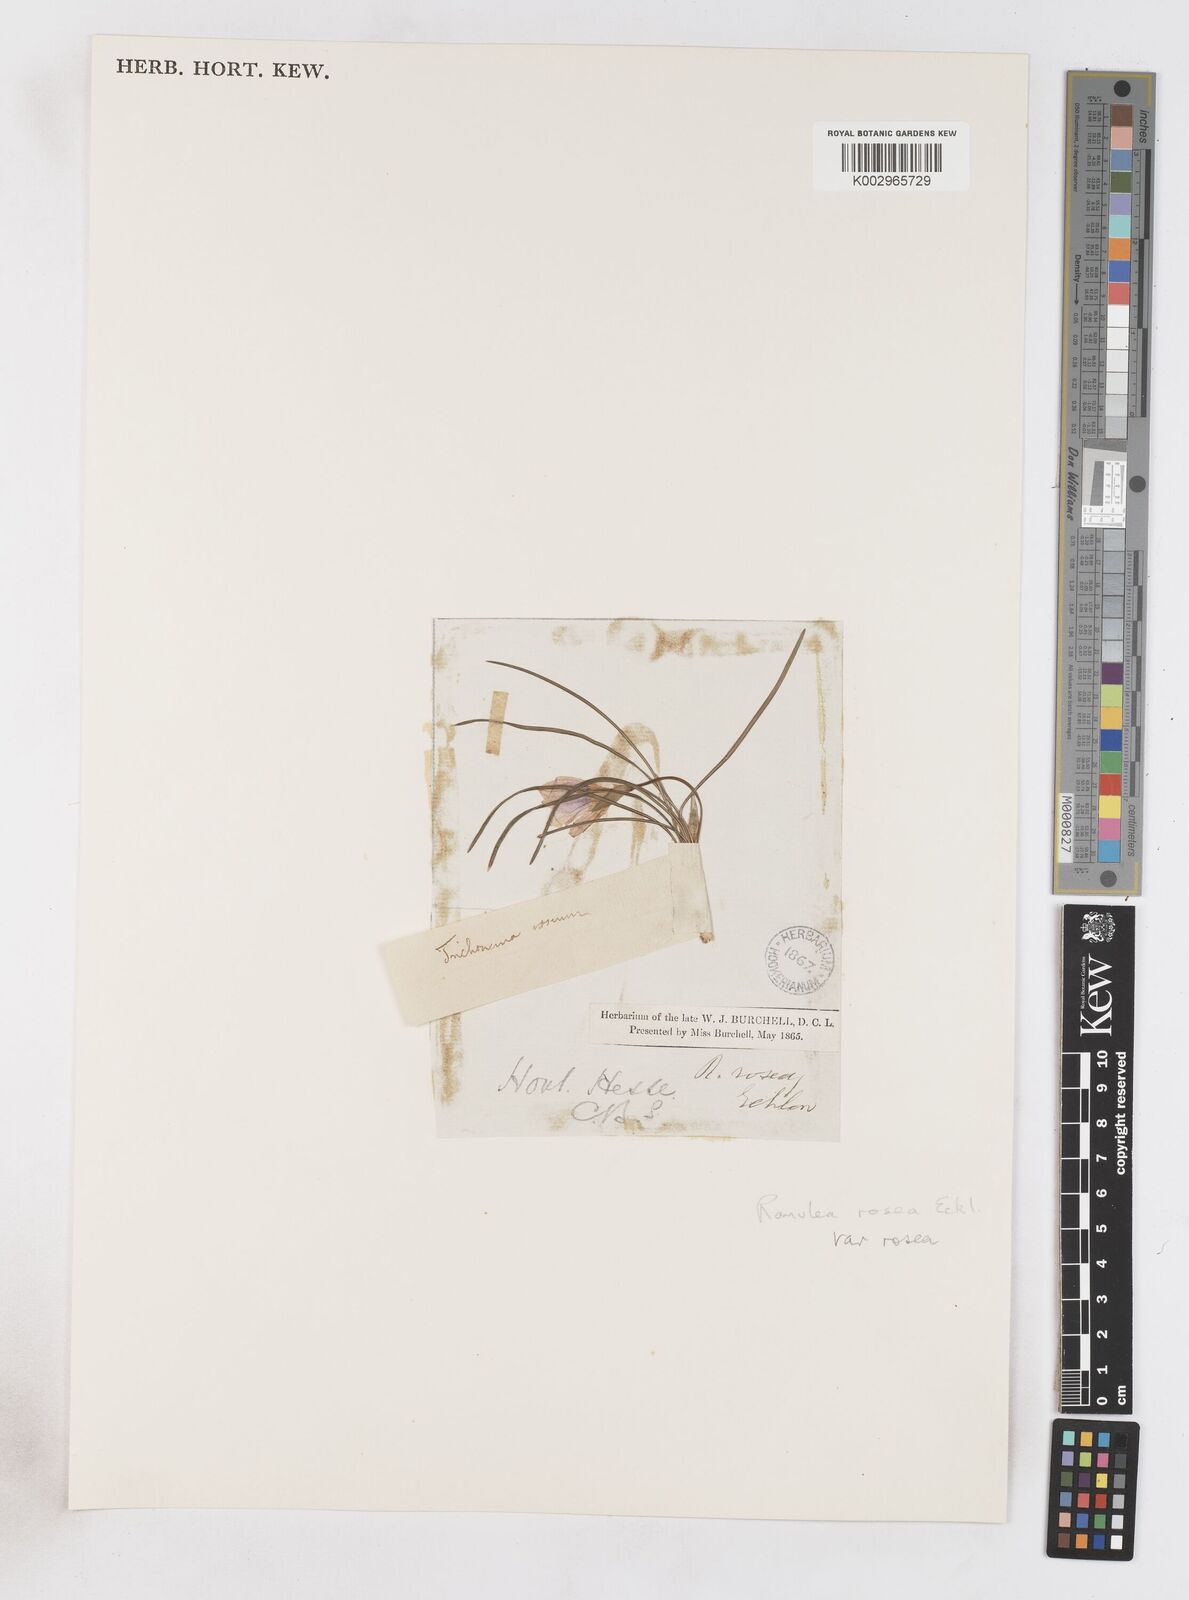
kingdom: Plantae
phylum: Tracheophyta
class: Liliopsida
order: Asparagales
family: Iridaceae
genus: Romulea
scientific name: Romulea rosea
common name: Oniongrass
